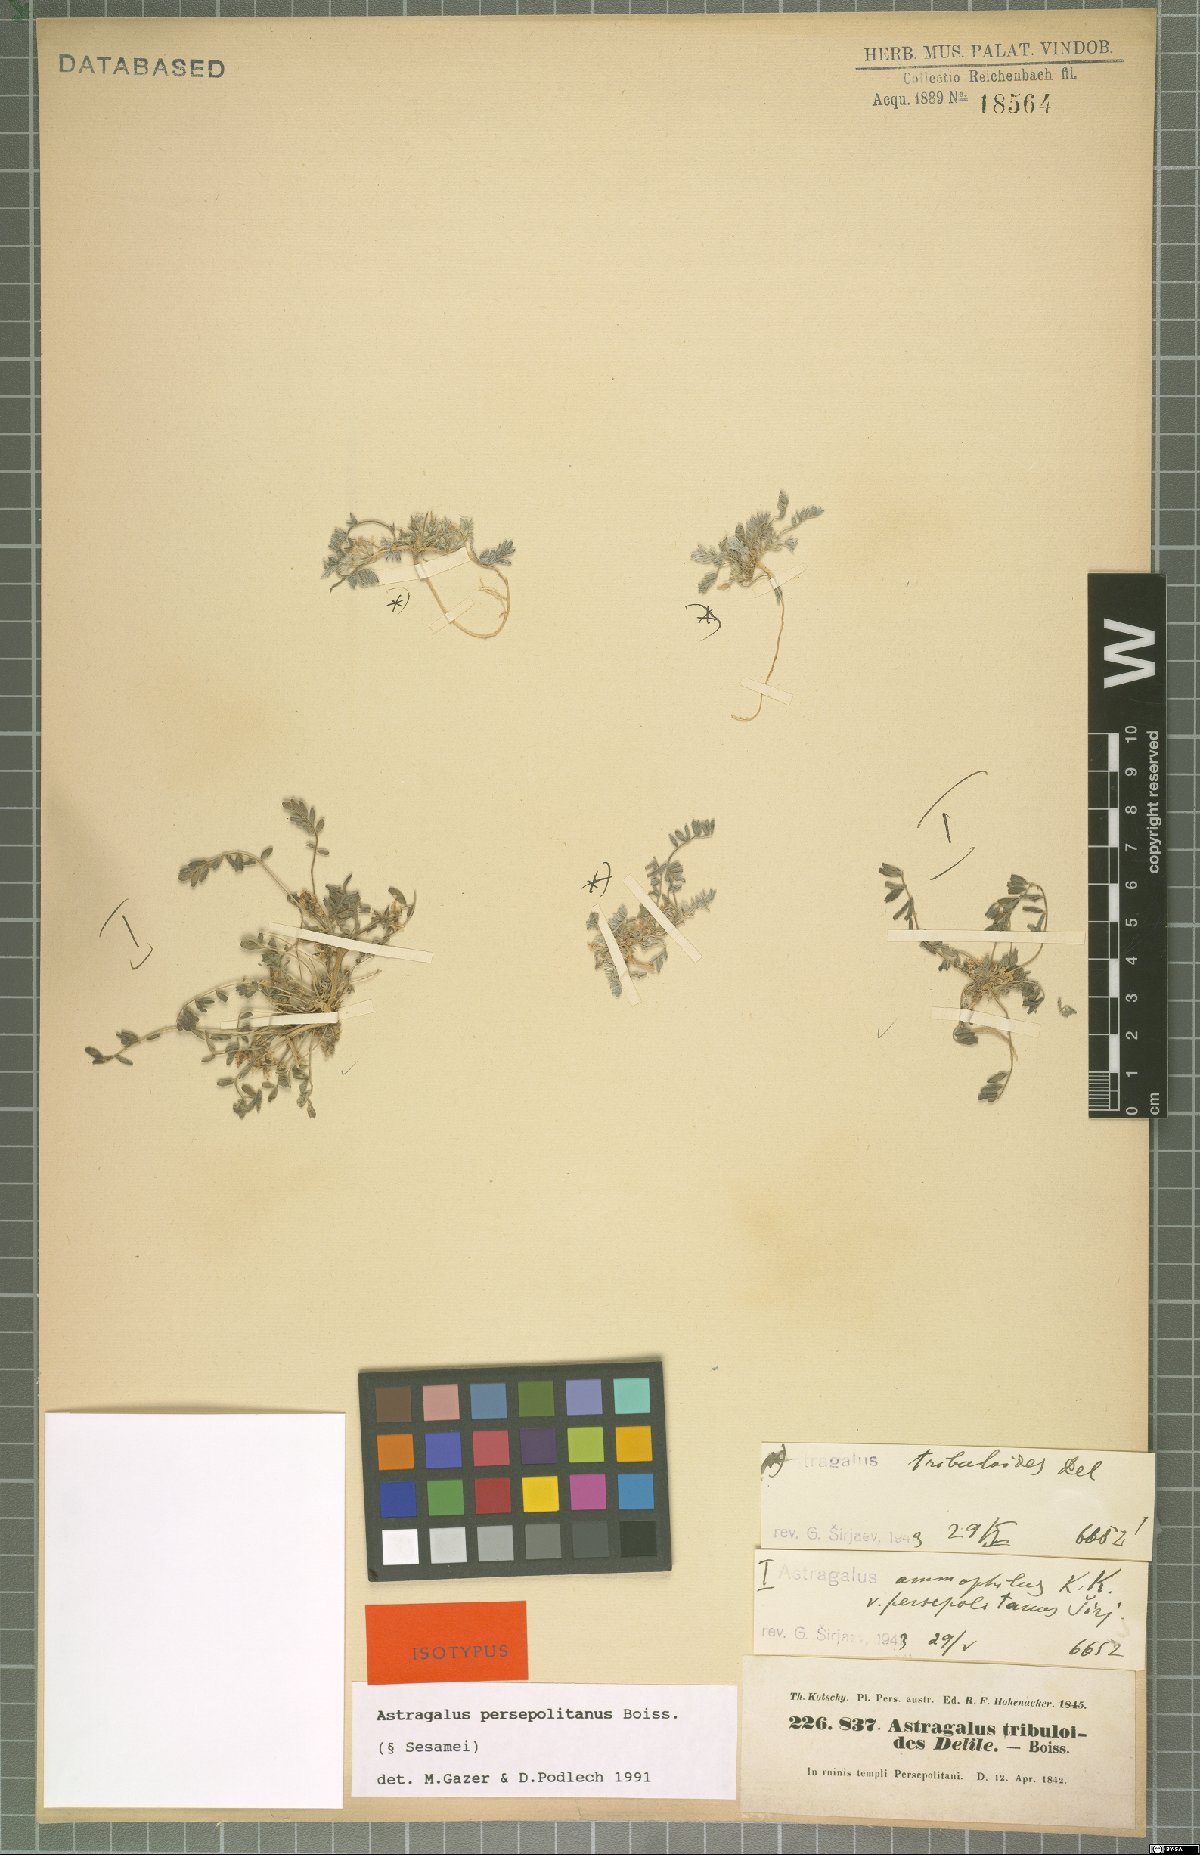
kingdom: Plantae
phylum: Tracheophyta
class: Magnoliopsida
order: Fabales
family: Fabaceae
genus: Astragalus
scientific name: Astragalus ammophilus
